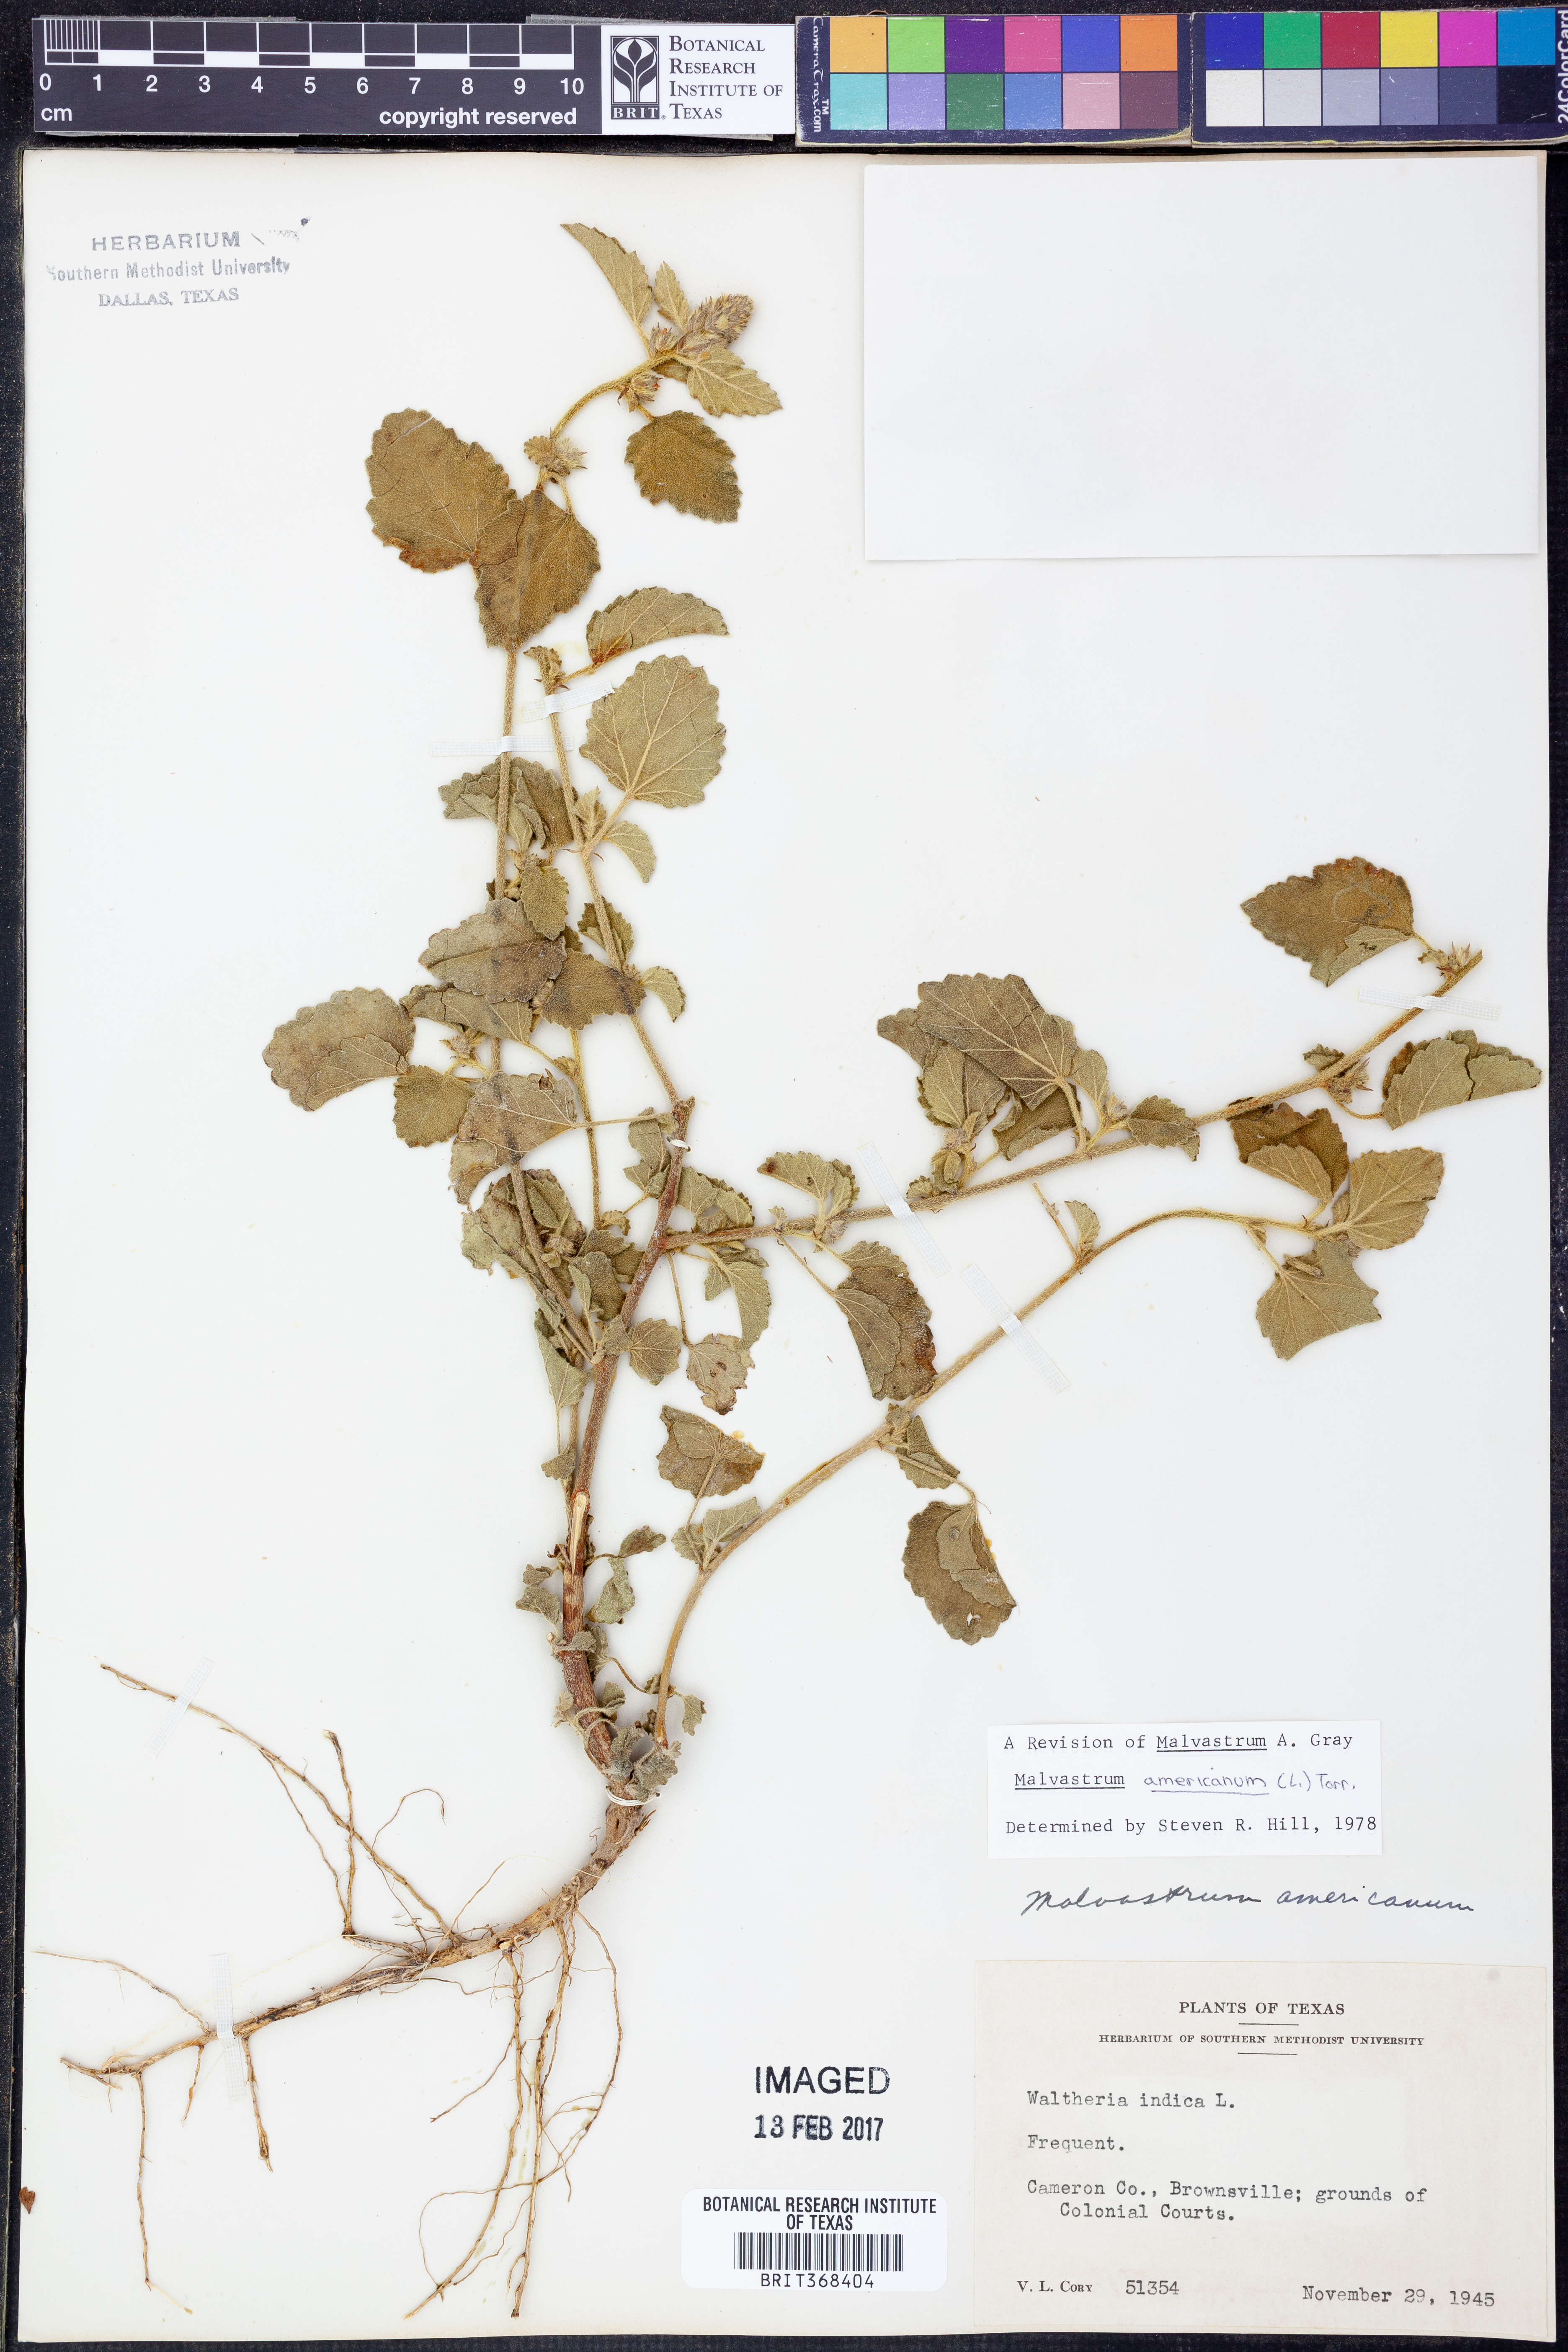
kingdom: Plantae
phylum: Tracheophyta
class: Magnoliopsida
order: Malvales
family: Malvaceae
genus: Malvastrum
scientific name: Malvastrum americanum
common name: Spiked malvastrum
